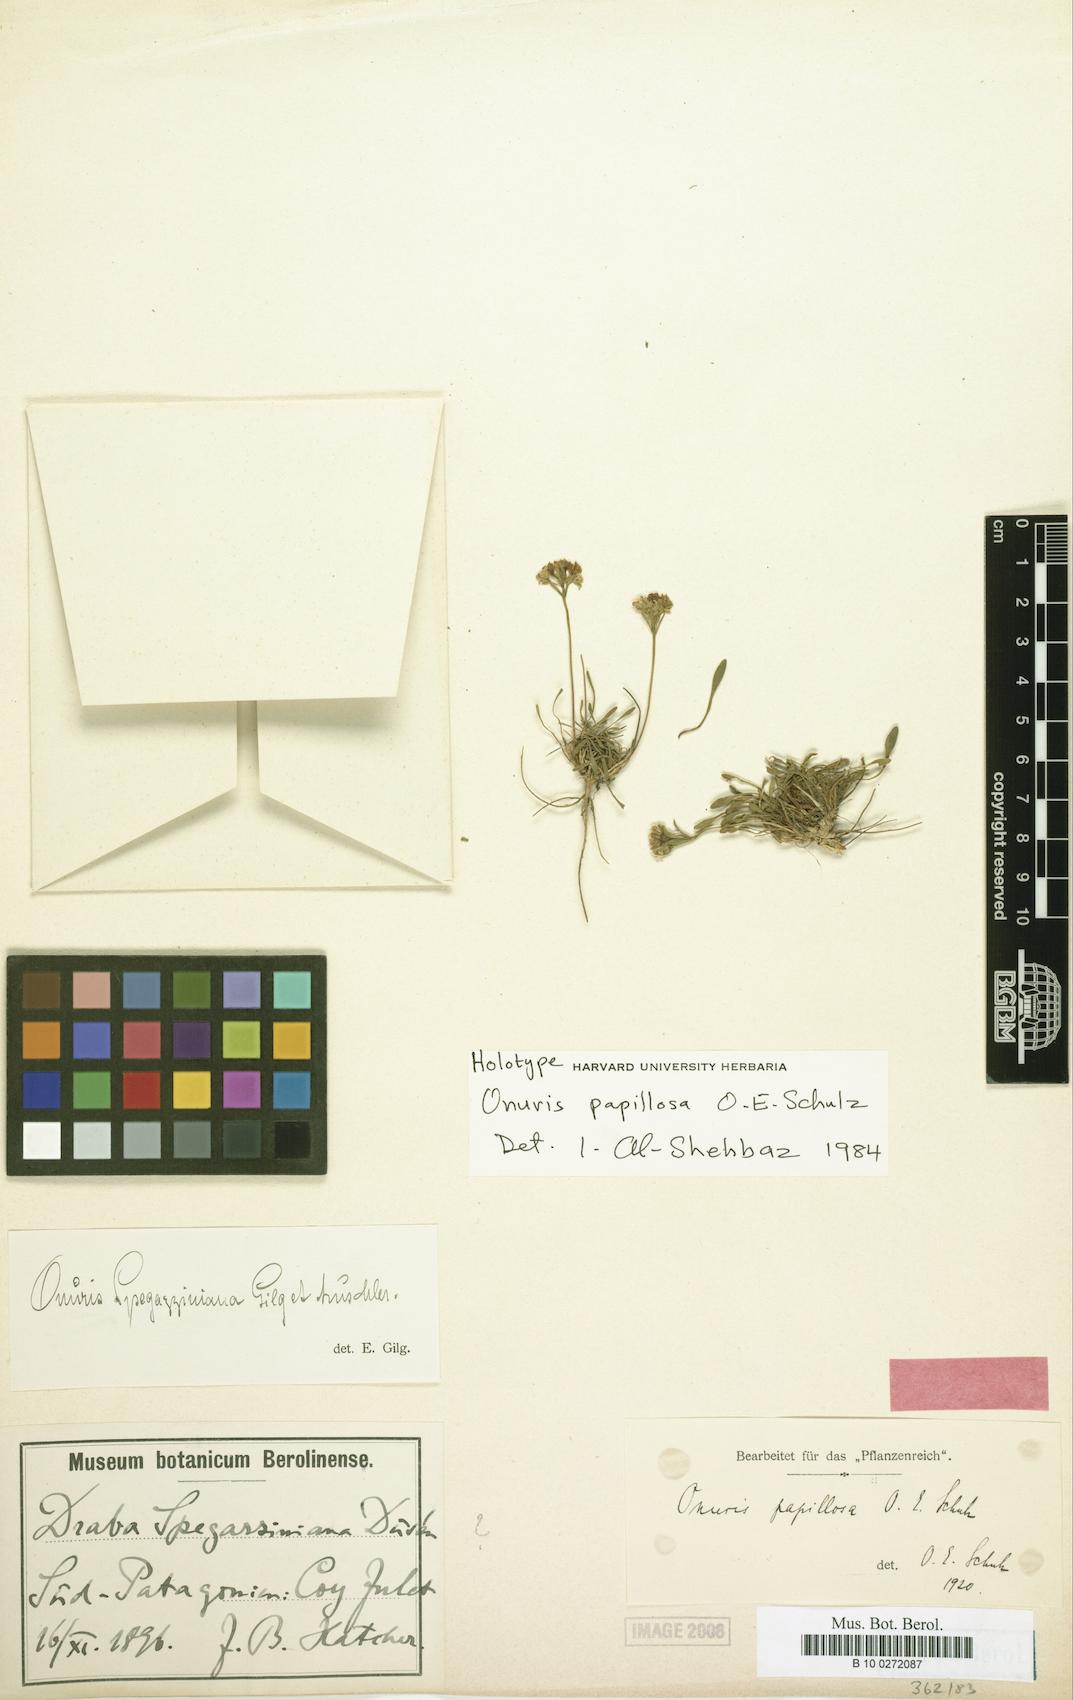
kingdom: Plantae
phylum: Tracheophyta
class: Magnoliopsida
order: Brassicales
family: Brassicaceae
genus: Onuris
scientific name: Onuris papillosa
